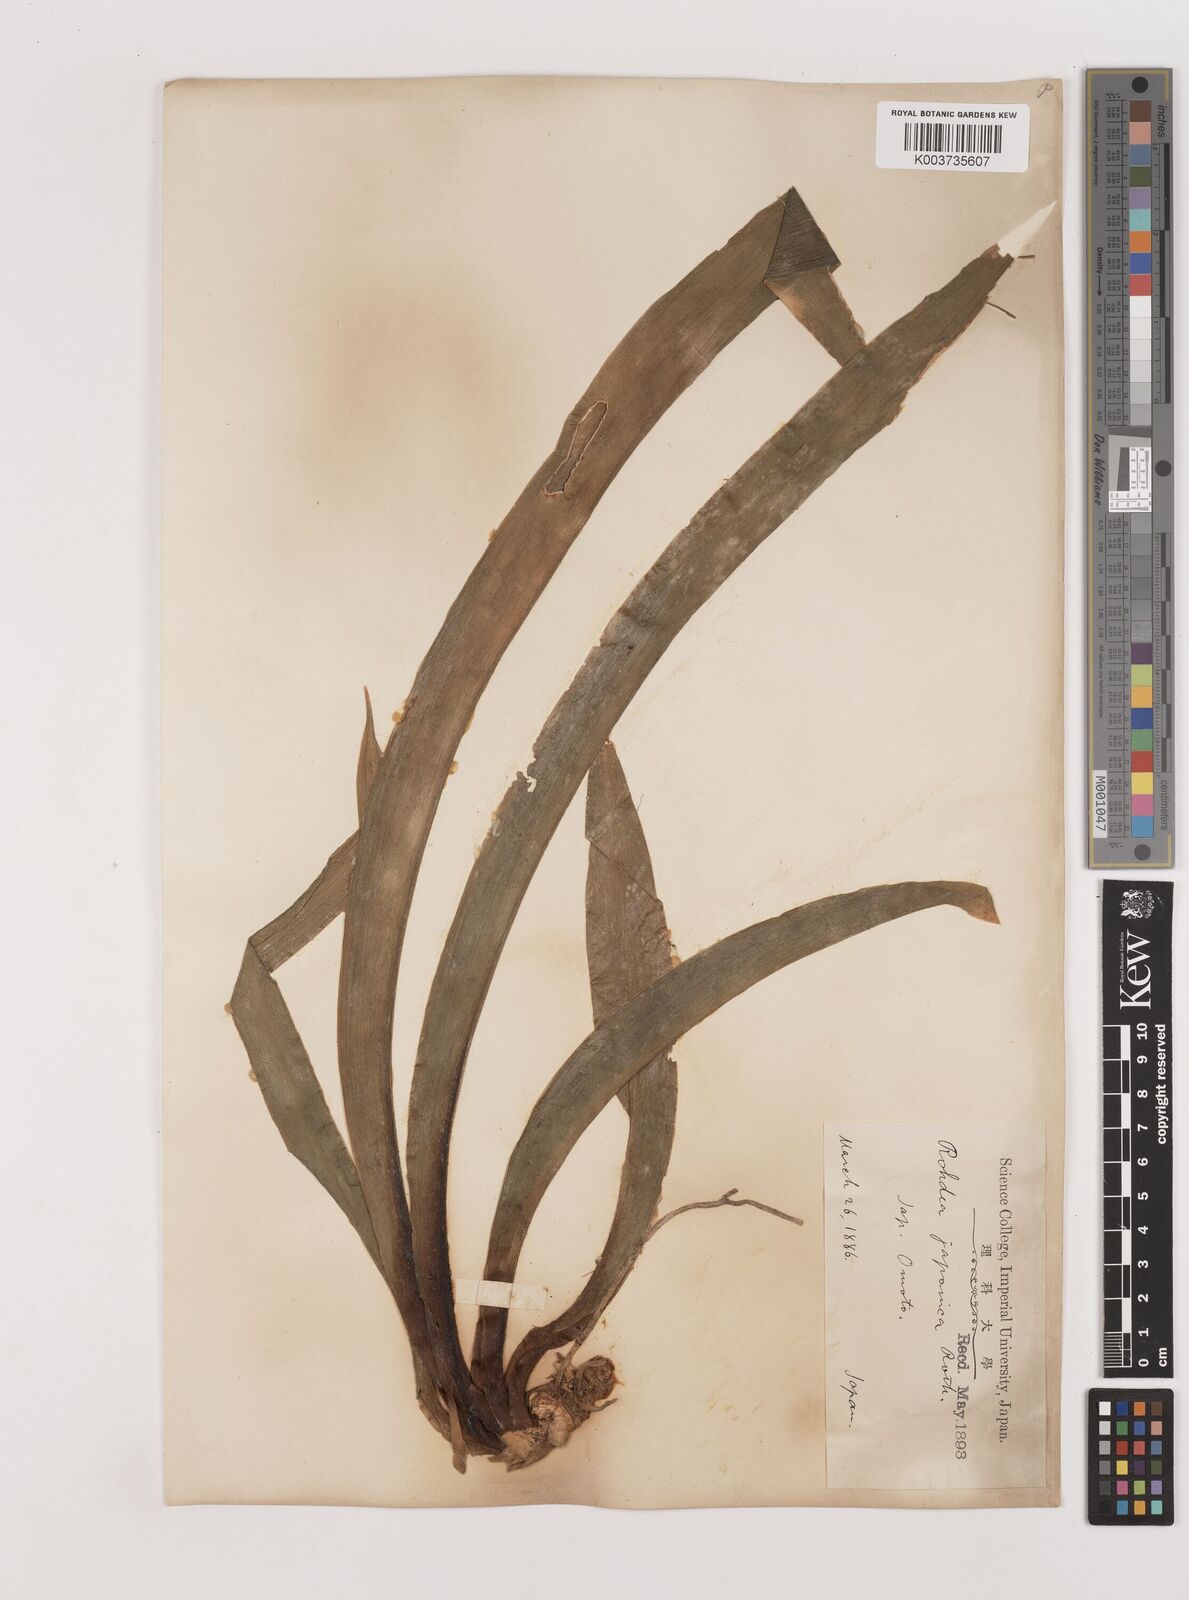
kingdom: Plantae
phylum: Tracheophyta
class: Liliopsida
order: Asparagales
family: Asparagaceae
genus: Rohdea
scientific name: Rohdea japonica
